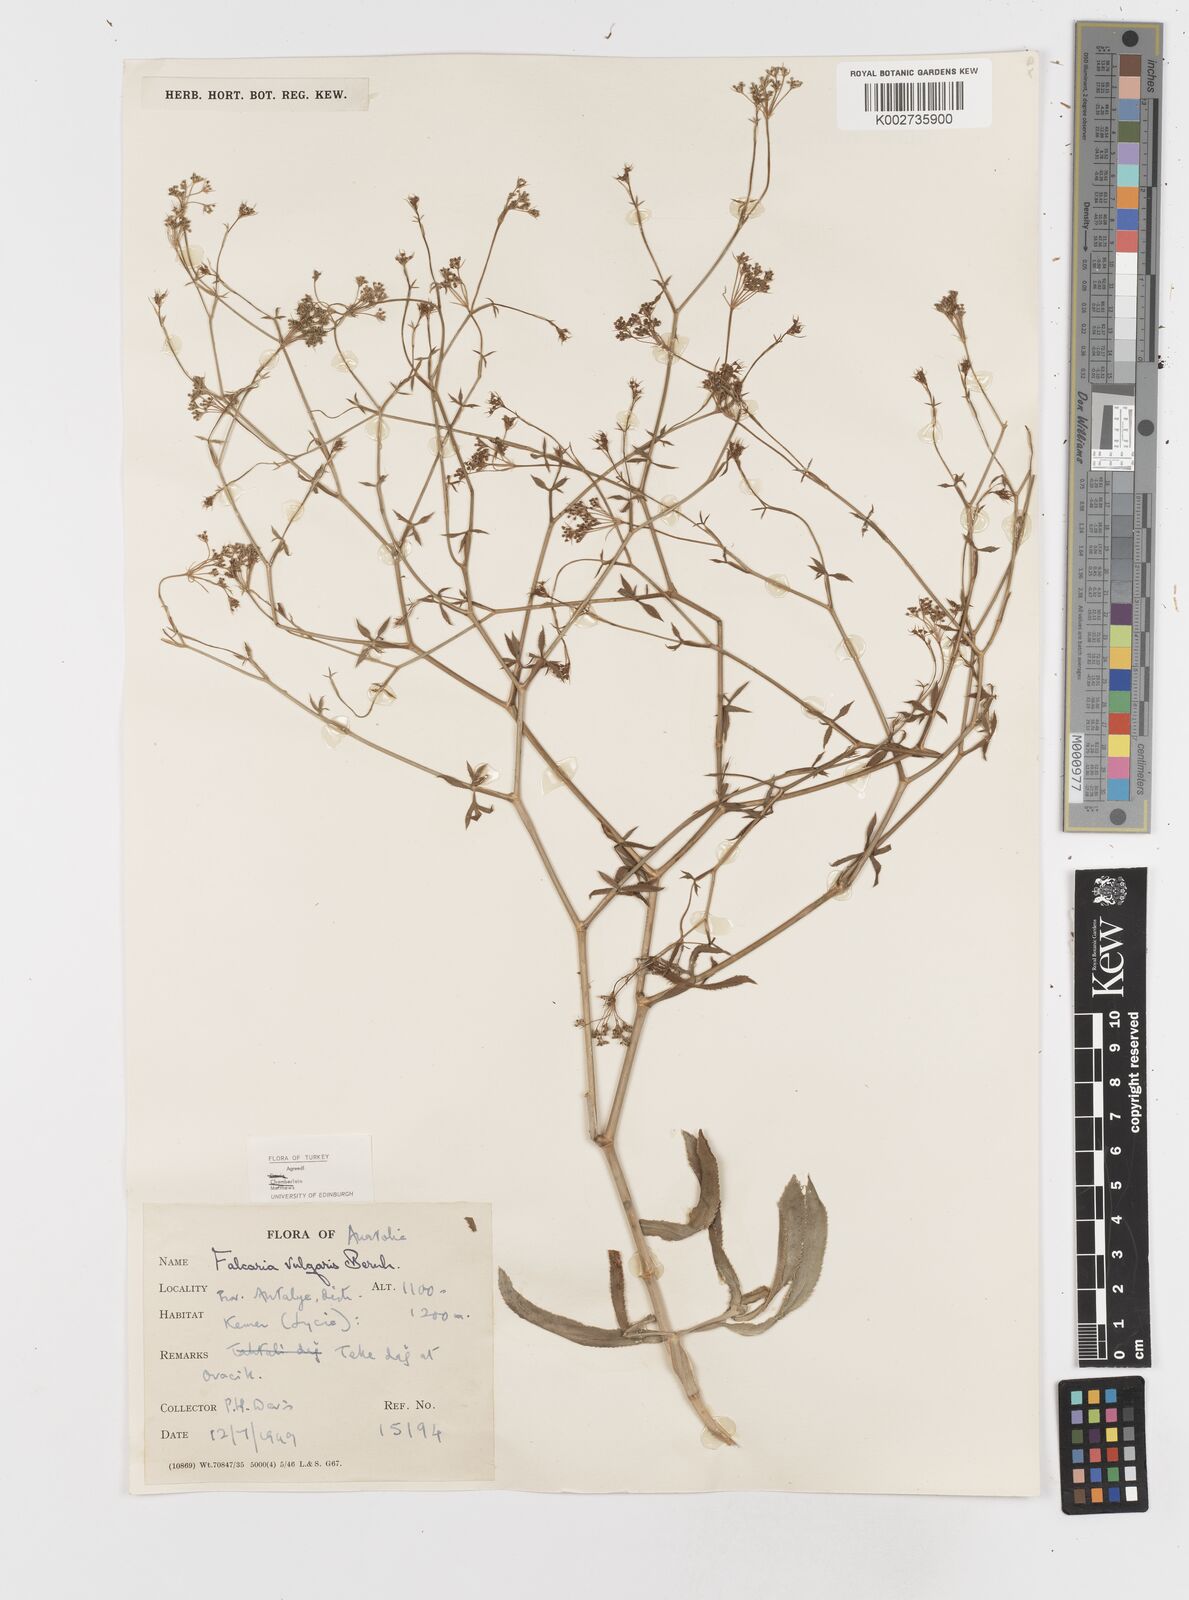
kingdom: Plantae
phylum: Tracheophyta
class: Magnoliopsida
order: Apiales
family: Apiaceae
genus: Falcaria
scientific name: Falcaria vulgaris
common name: Longleaf
